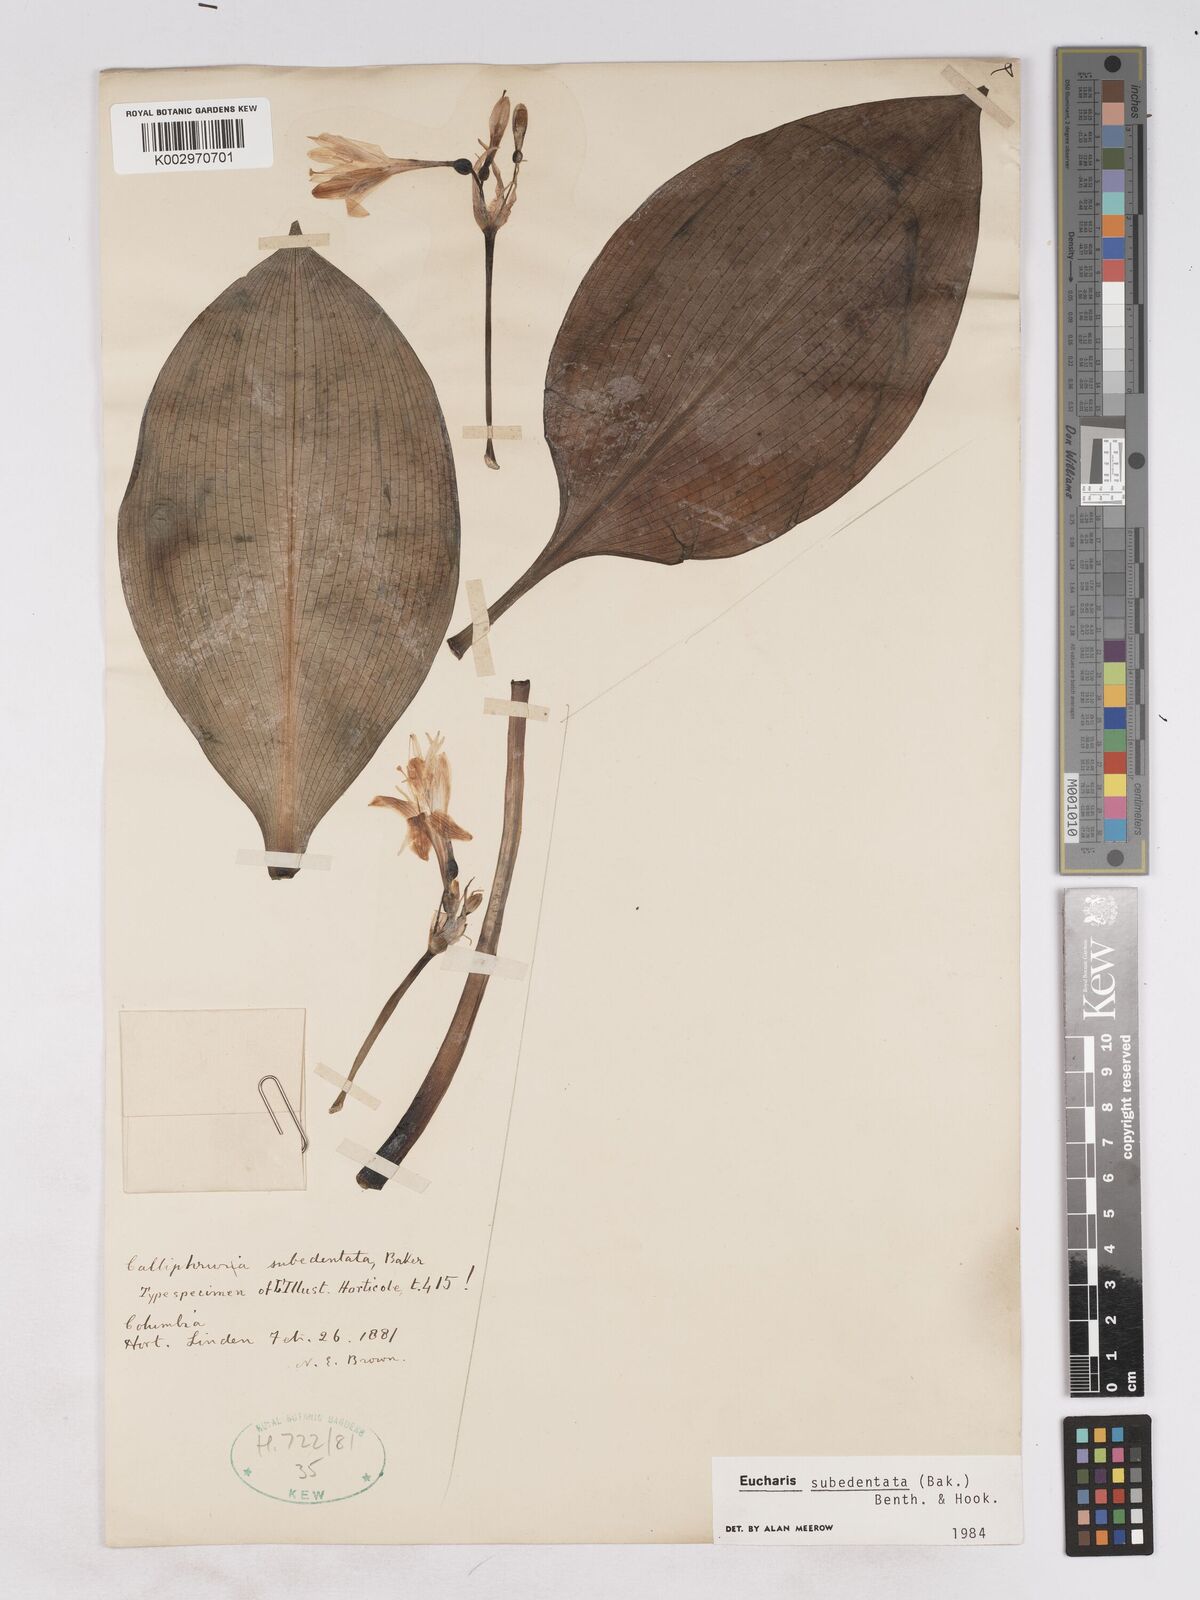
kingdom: Plantae
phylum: Tracheophyta
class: Liliopsida
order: Asparagales
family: Amaryllidaceae
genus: Urceolina
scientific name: Urceolina subedentata
